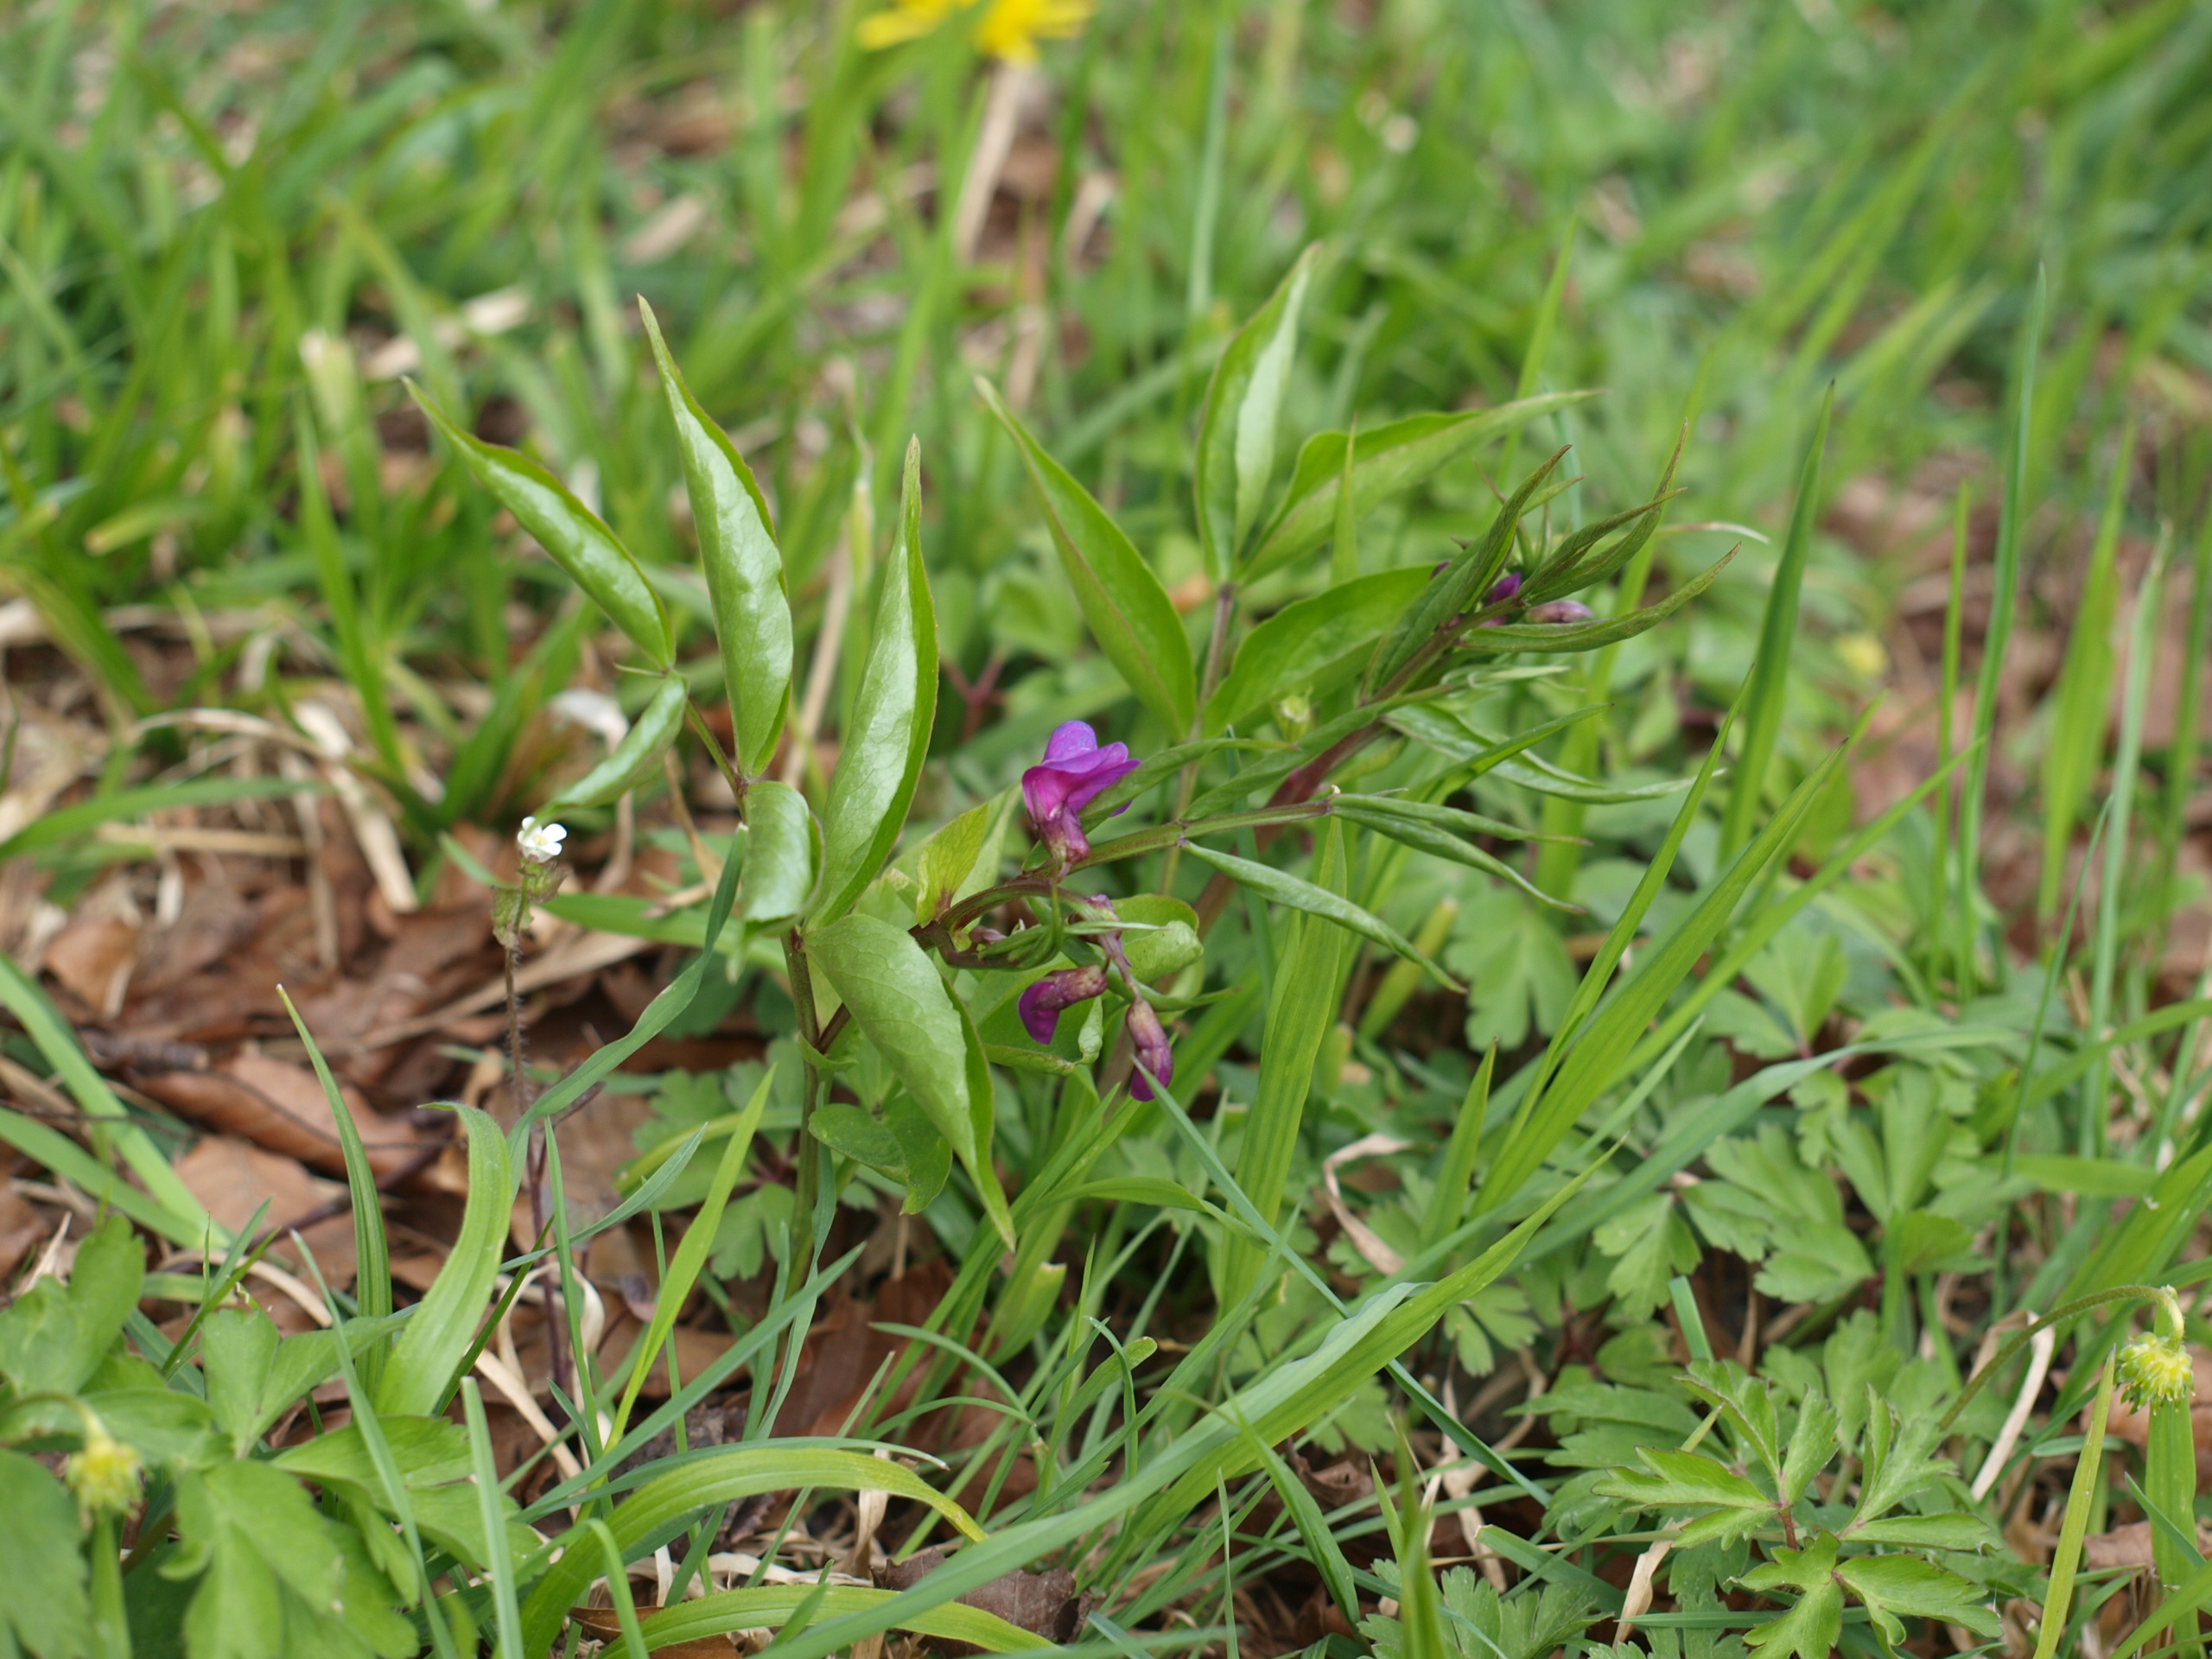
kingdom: Plantae
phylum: Tracheophyta
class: Magnoliopsida
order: Fabales
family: Fabaceae
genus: Lathyrus
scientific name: Lathyrus vernus
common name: Vår-fladbælg
